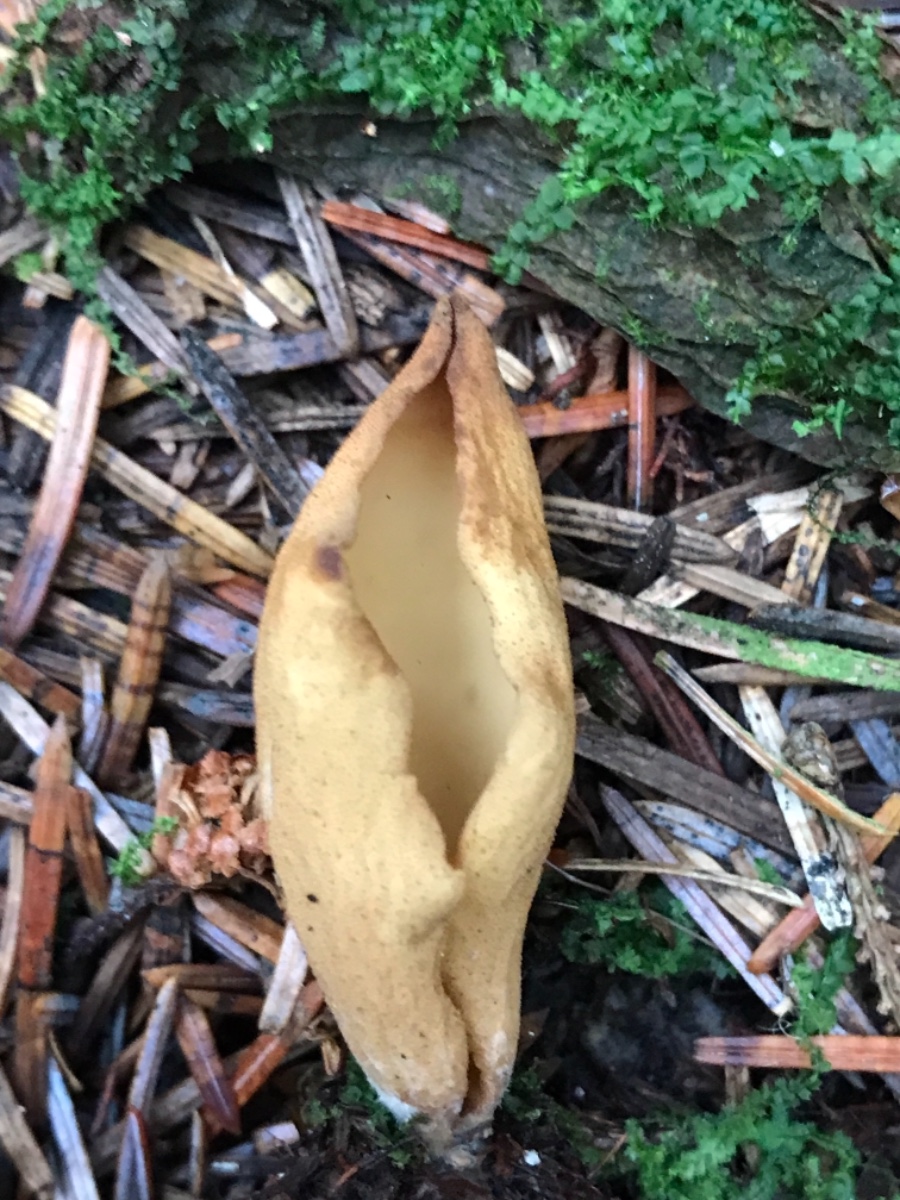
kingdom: Fungi
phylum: Ascomycota
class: Pezizomycetes
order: Pezizales
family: Otideaceae
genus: Otidea
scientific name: Otidea
